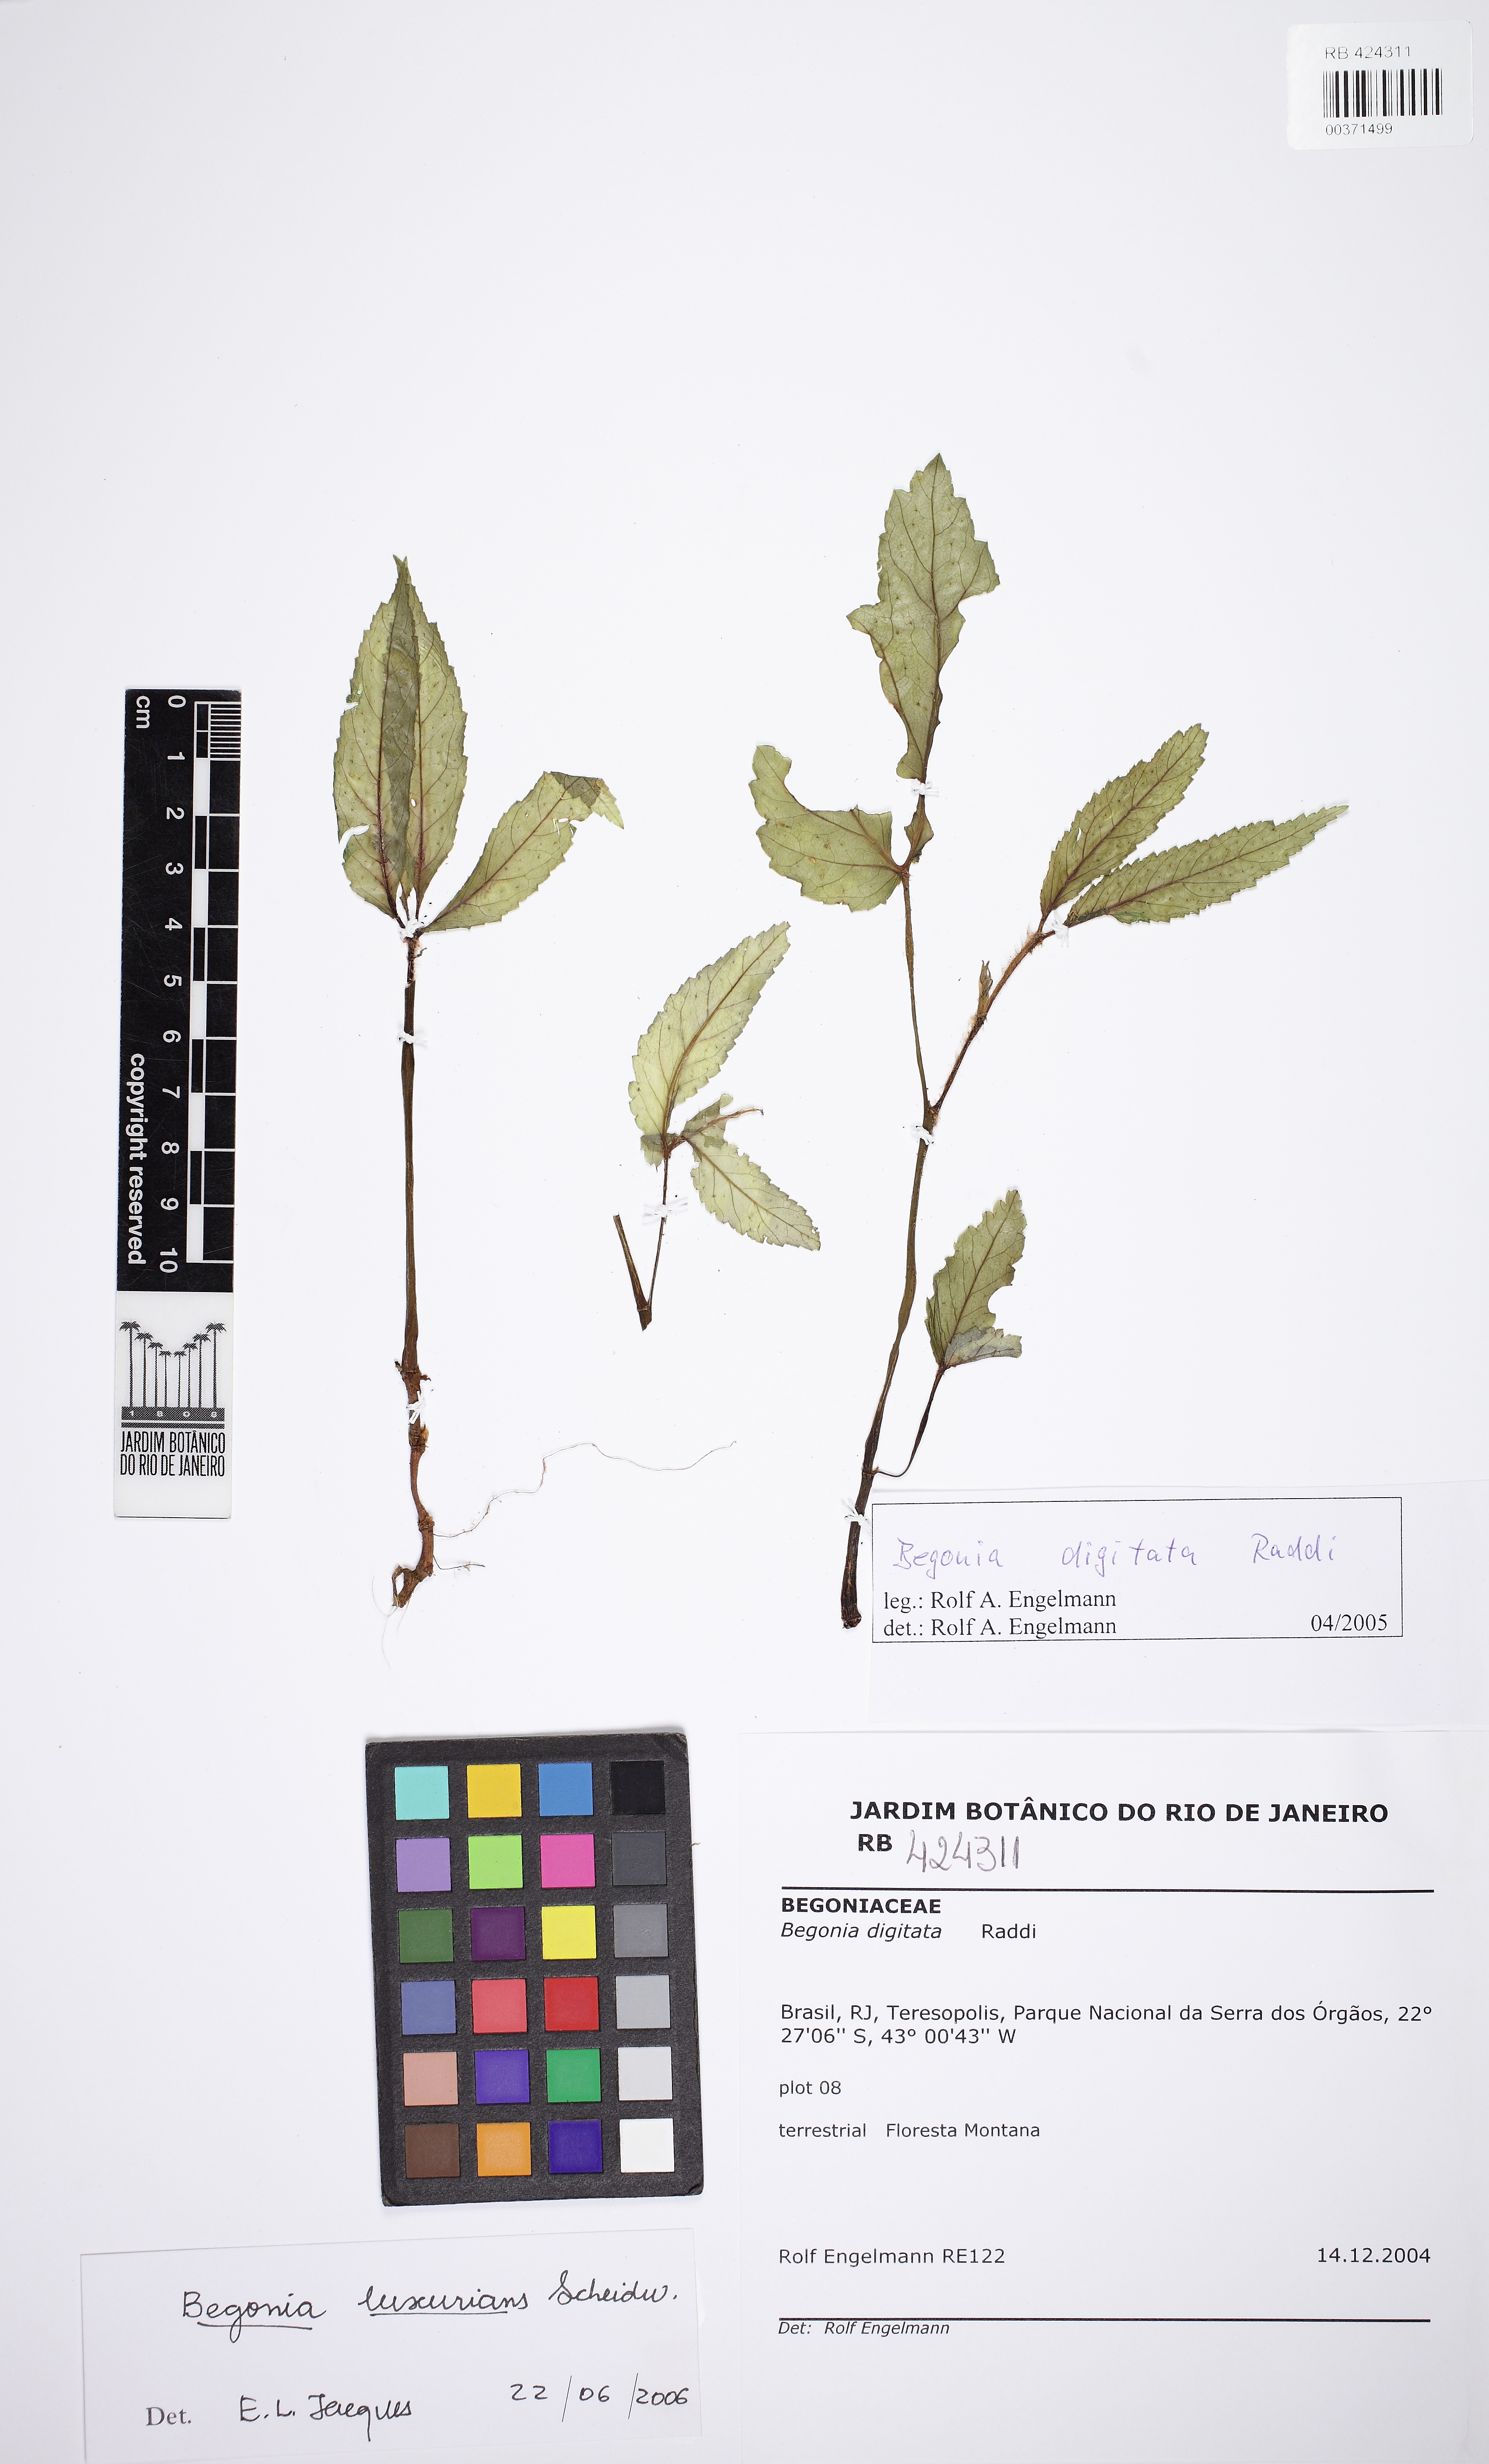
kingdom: Plantae
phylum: Tracheophyta
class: Magnoliopsida
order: Cucurbitales
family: Begoniaceae
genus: Begonia
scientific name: Begonia luxurians
